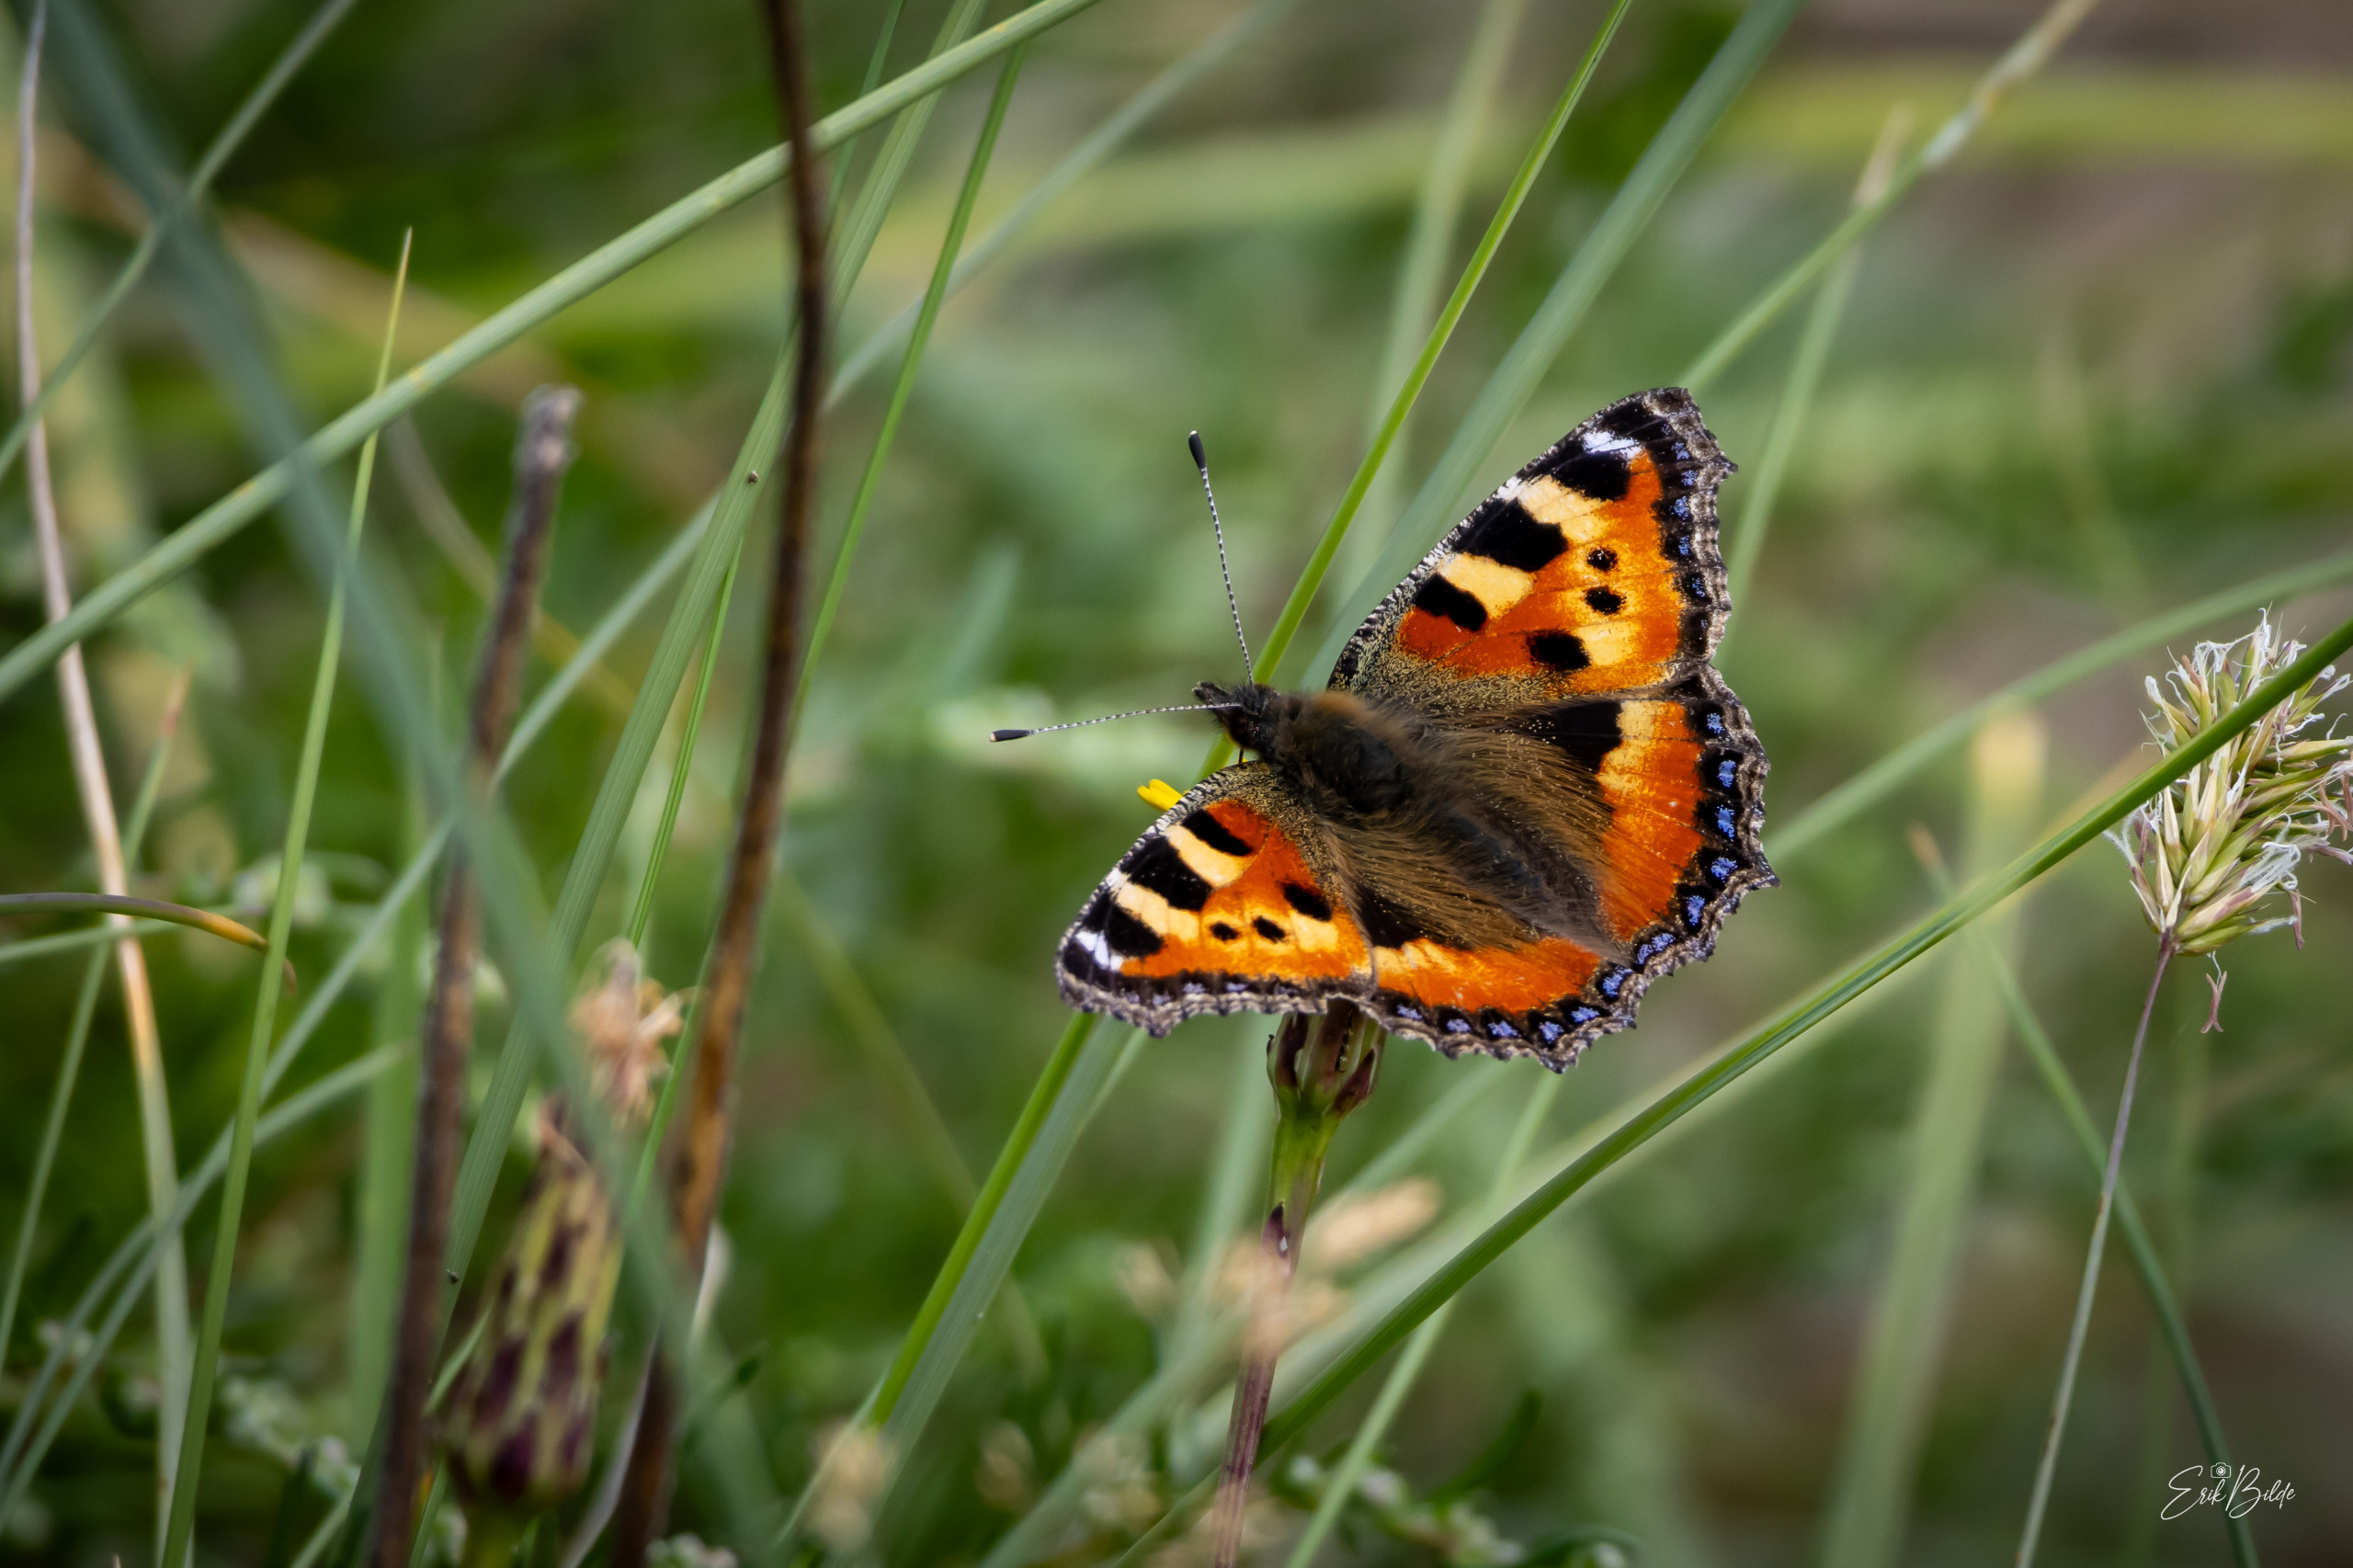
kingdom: Animalia
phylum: Arthropoda
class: Insecta
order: Lepidoptera
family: Nymphalidae
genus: Aglais
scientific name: Aglais urticae
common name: Nældens takvinge
